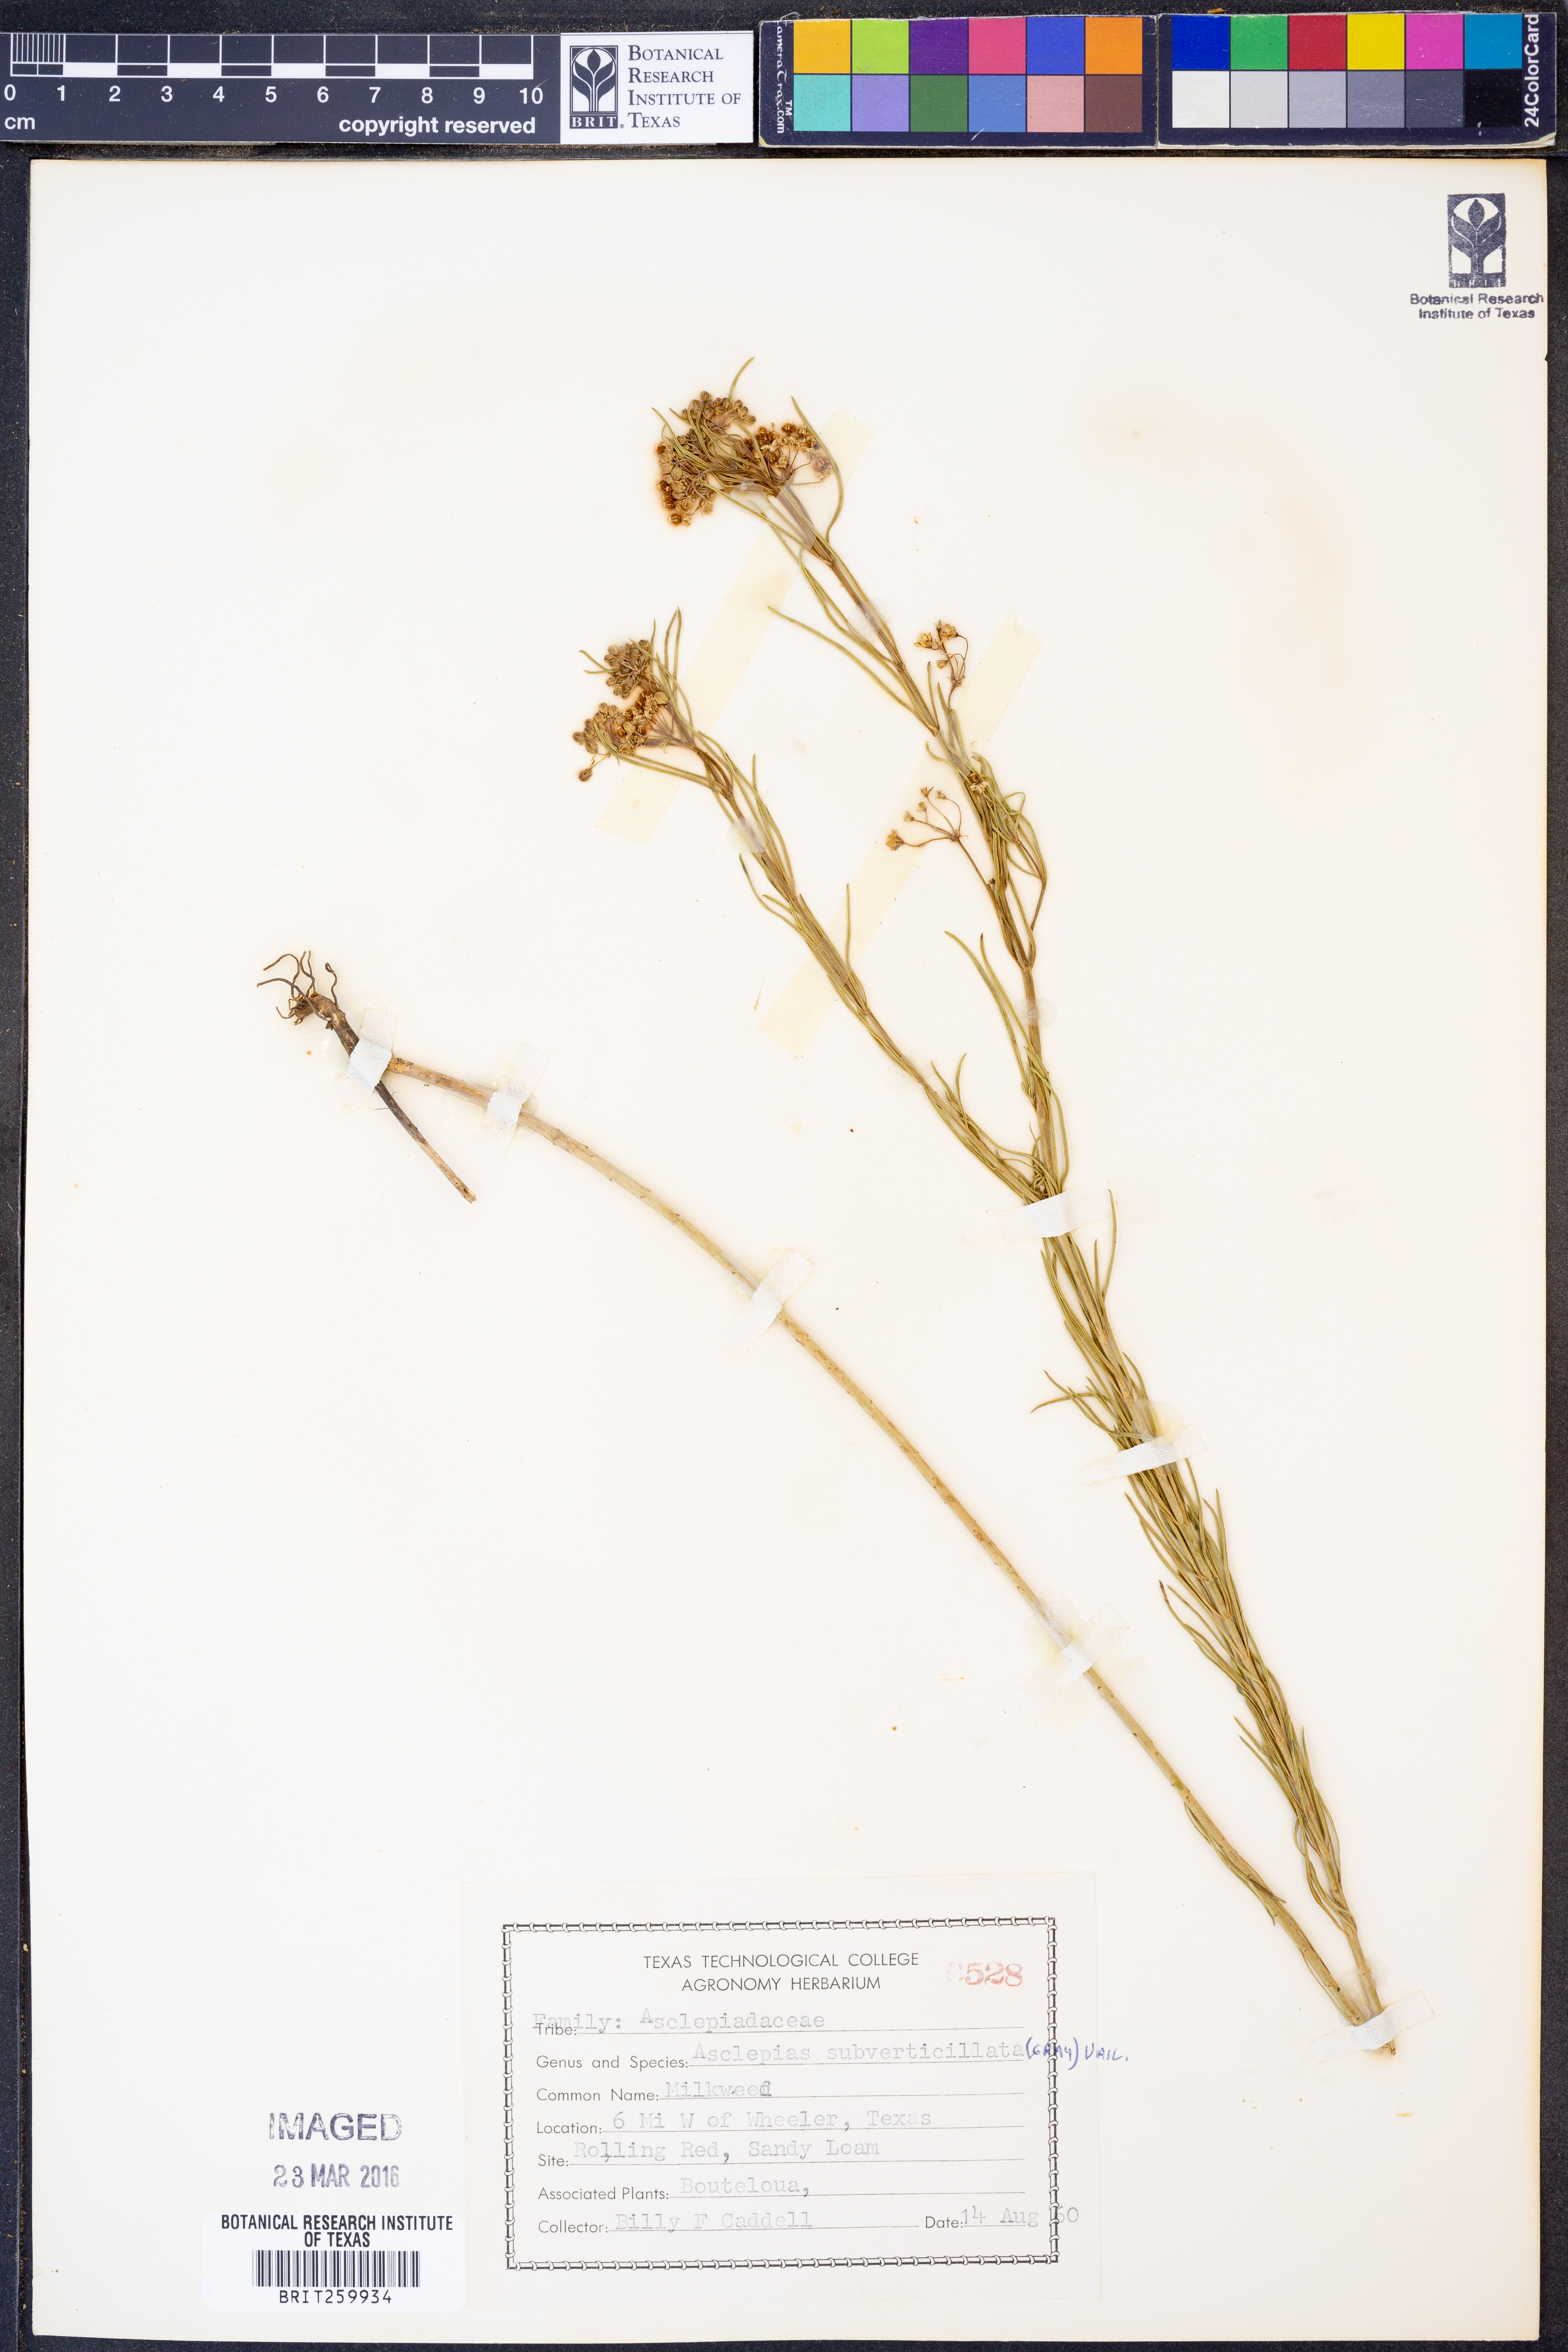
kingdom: Plantae
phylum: Tracheophyta
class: Magnoliopsida
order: Gentianales
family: Apocynaceae
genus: Asclepias
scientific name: Asclepias subverticillata
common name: Horsetail milkweed
